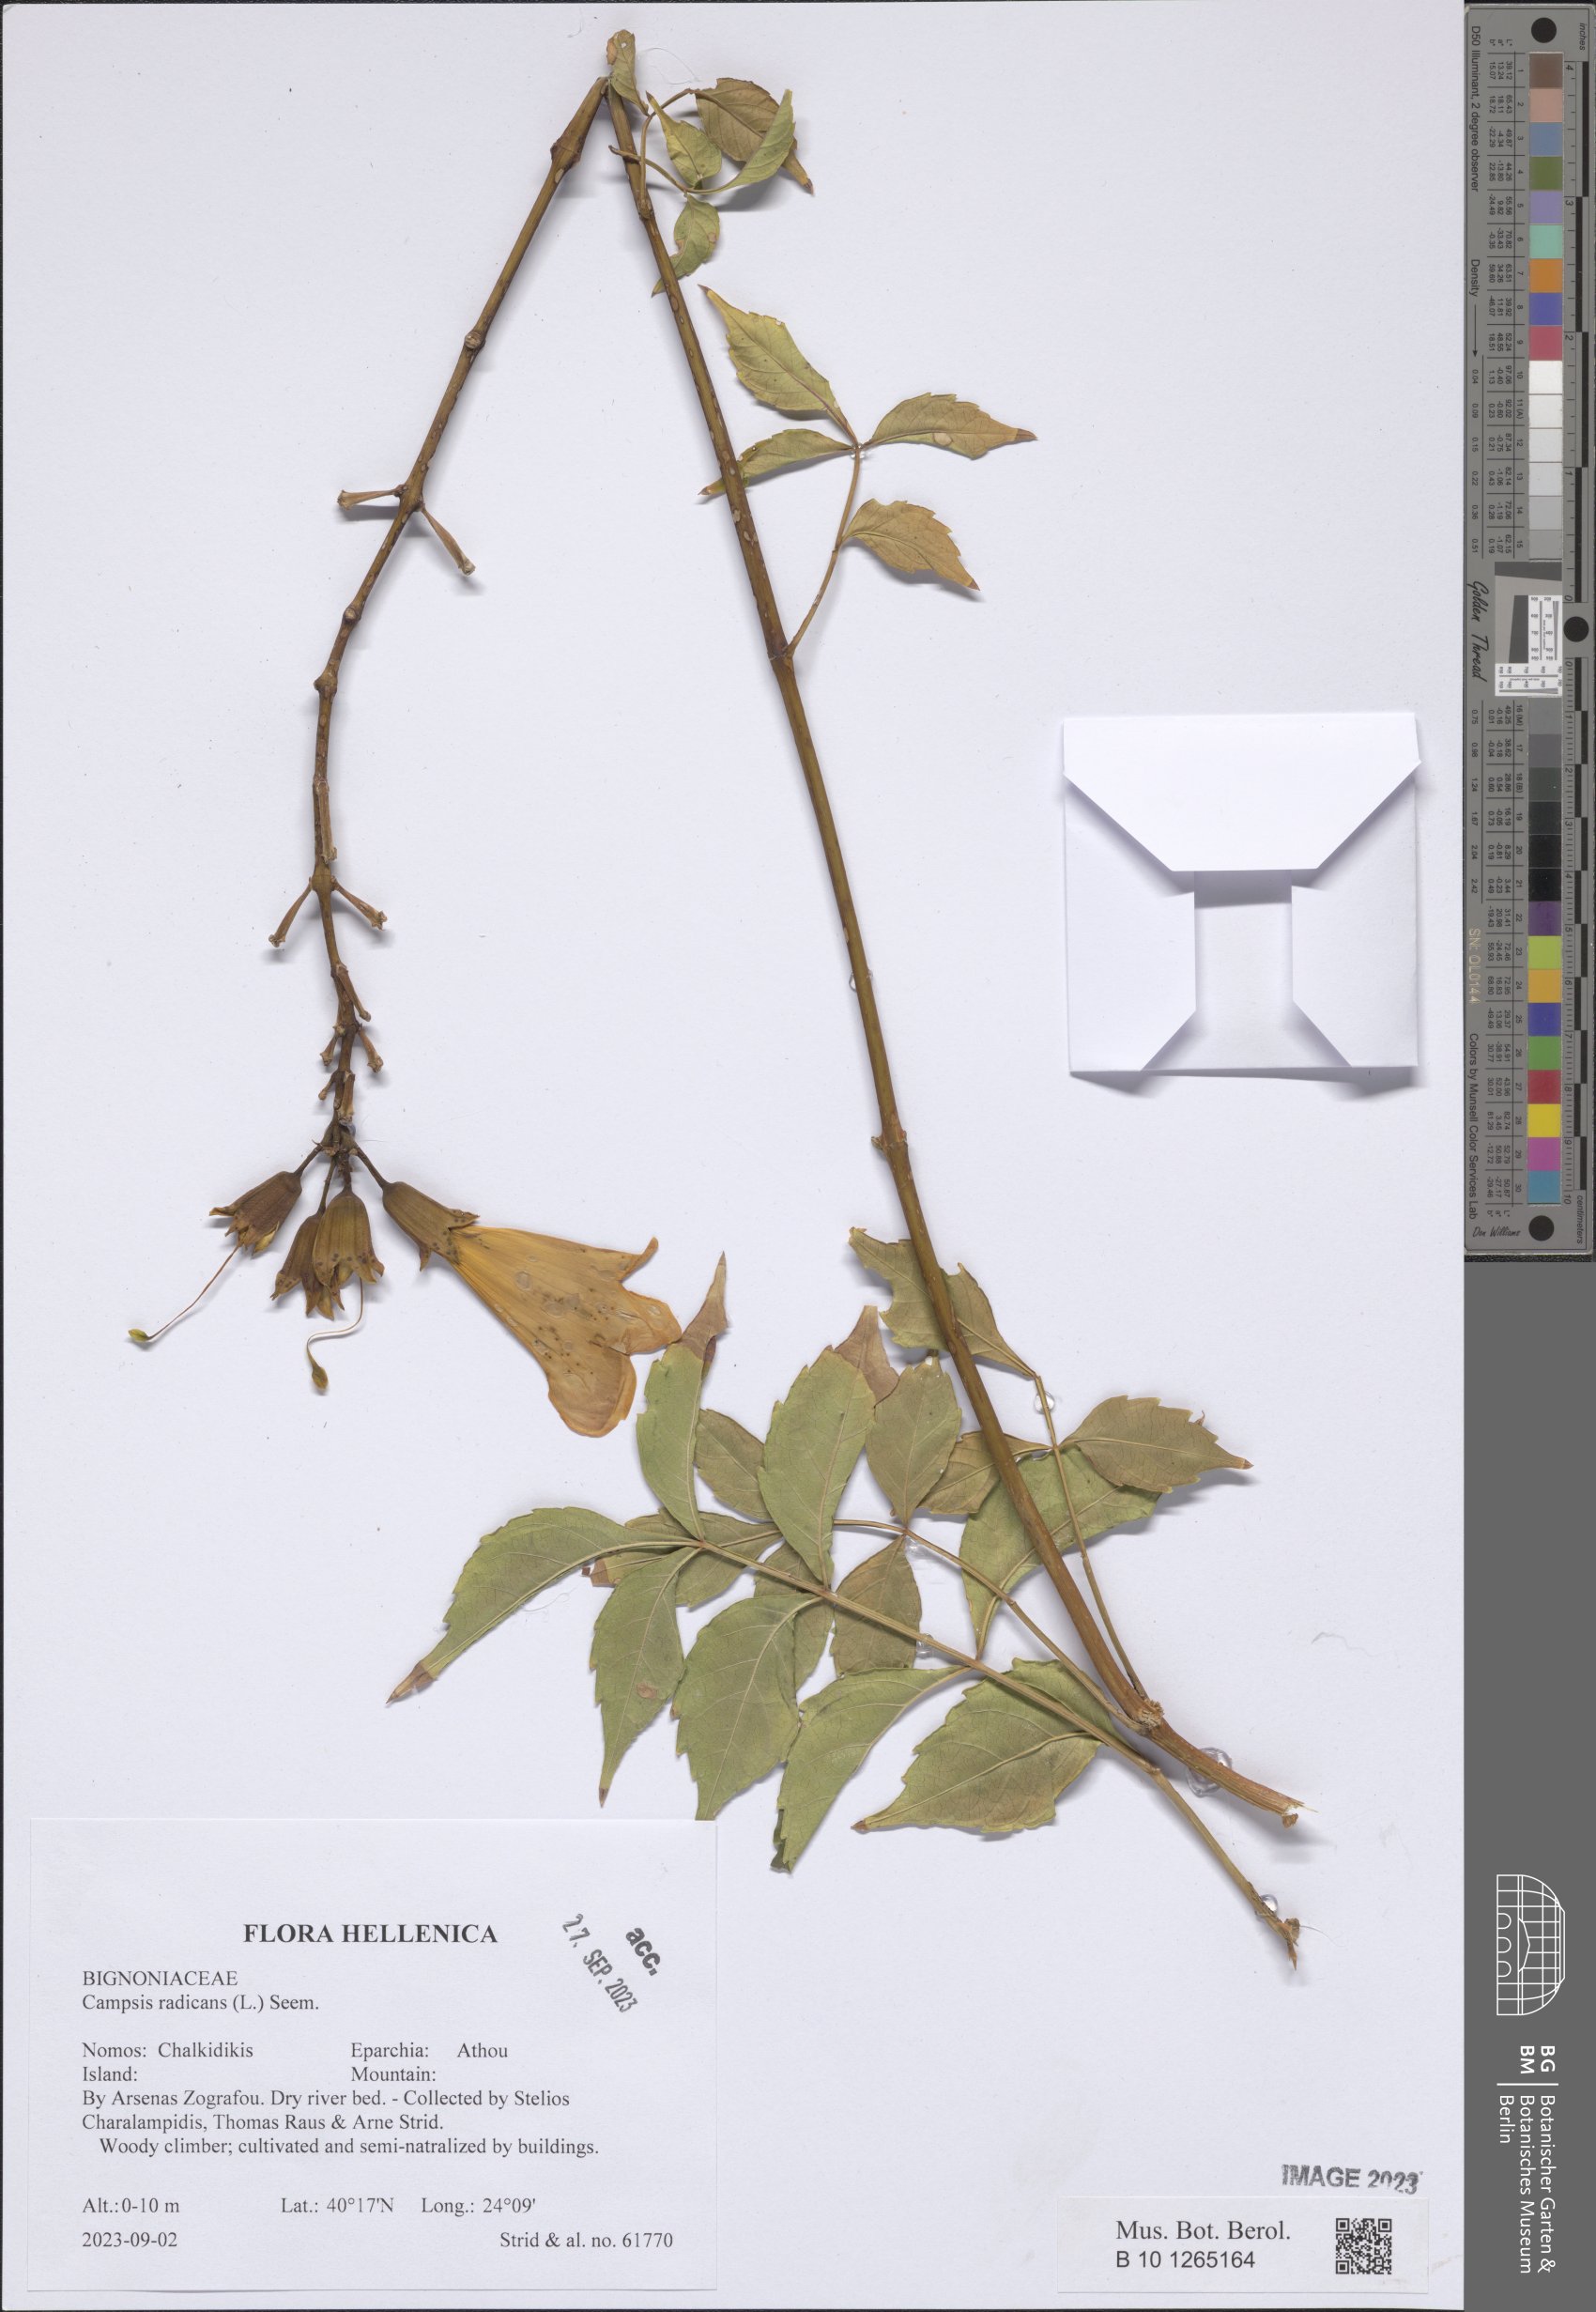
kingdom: Plantae
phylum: Tracheophyta
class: Magnoliopsida
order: Lamiales
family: Bignoniaceae
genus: Campsis
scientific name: Campsis radicans
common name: Trumpet-creeper
